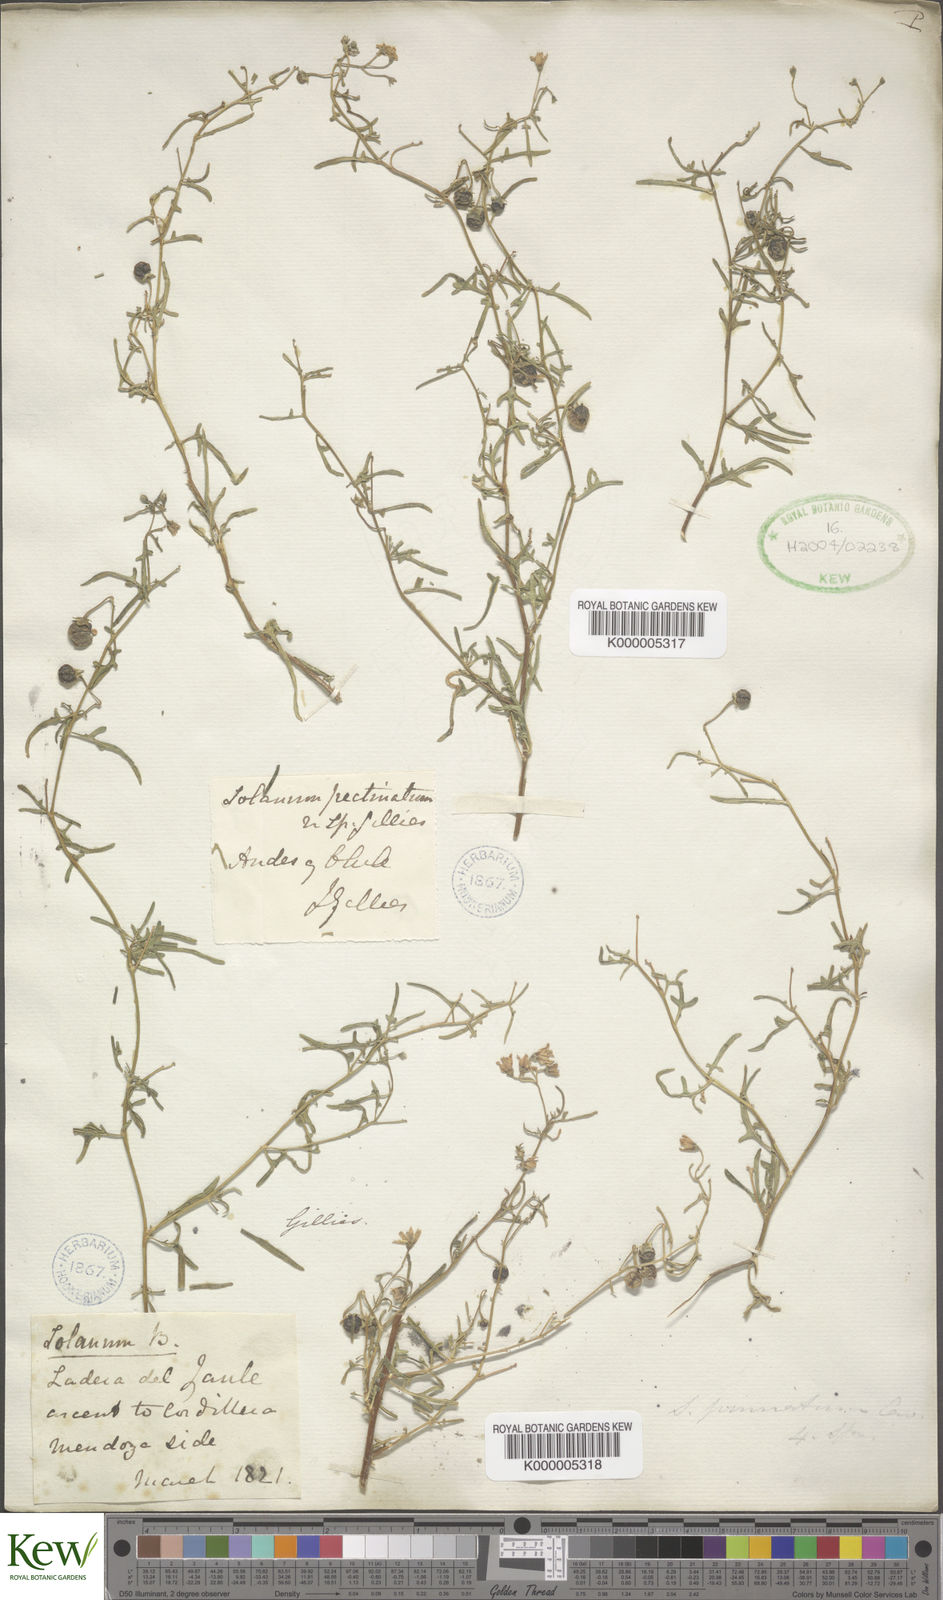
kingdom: Plantae
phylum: Tracheophyta
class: Magnoliopsida
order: Solanales
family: Solanaceae
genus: Solanum
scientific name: Solanum pectinatum
